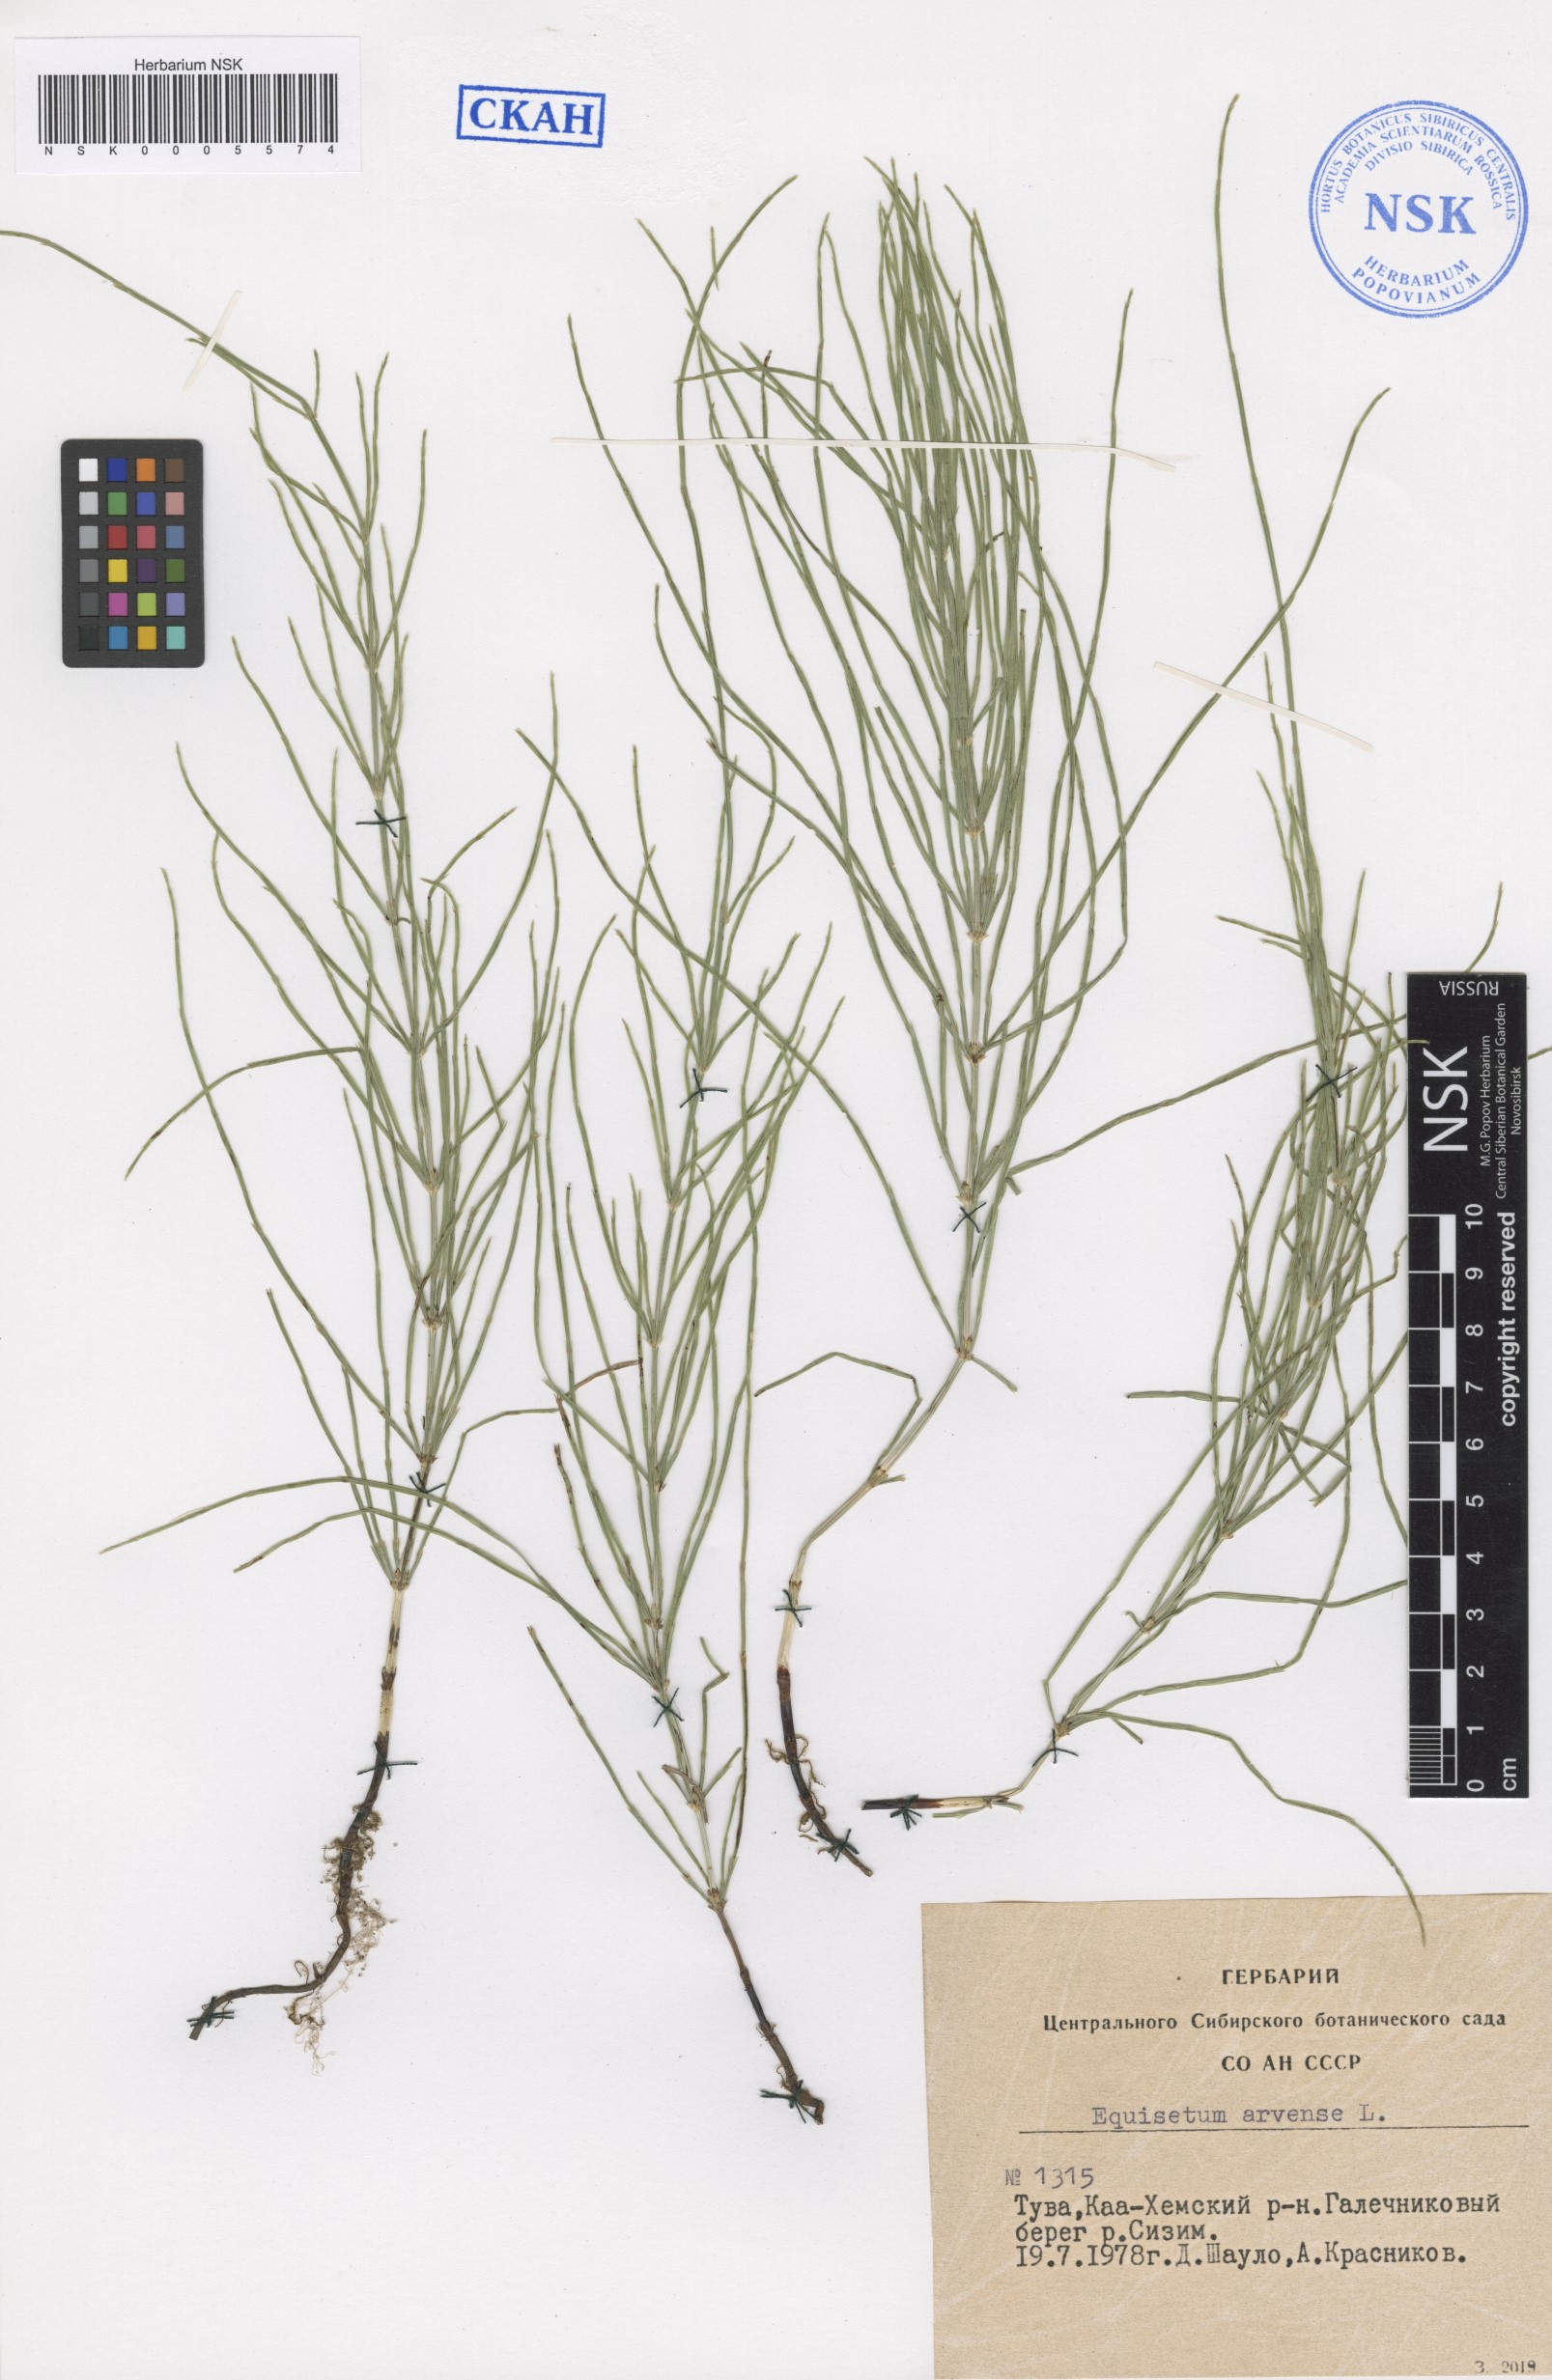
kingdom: Plantae
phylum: Tracheophyta
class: Polypodiopsida
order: Equisetales
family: Equisetaceae
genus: Equisetum
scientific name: Equisetum arvense
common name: Field horsetail
